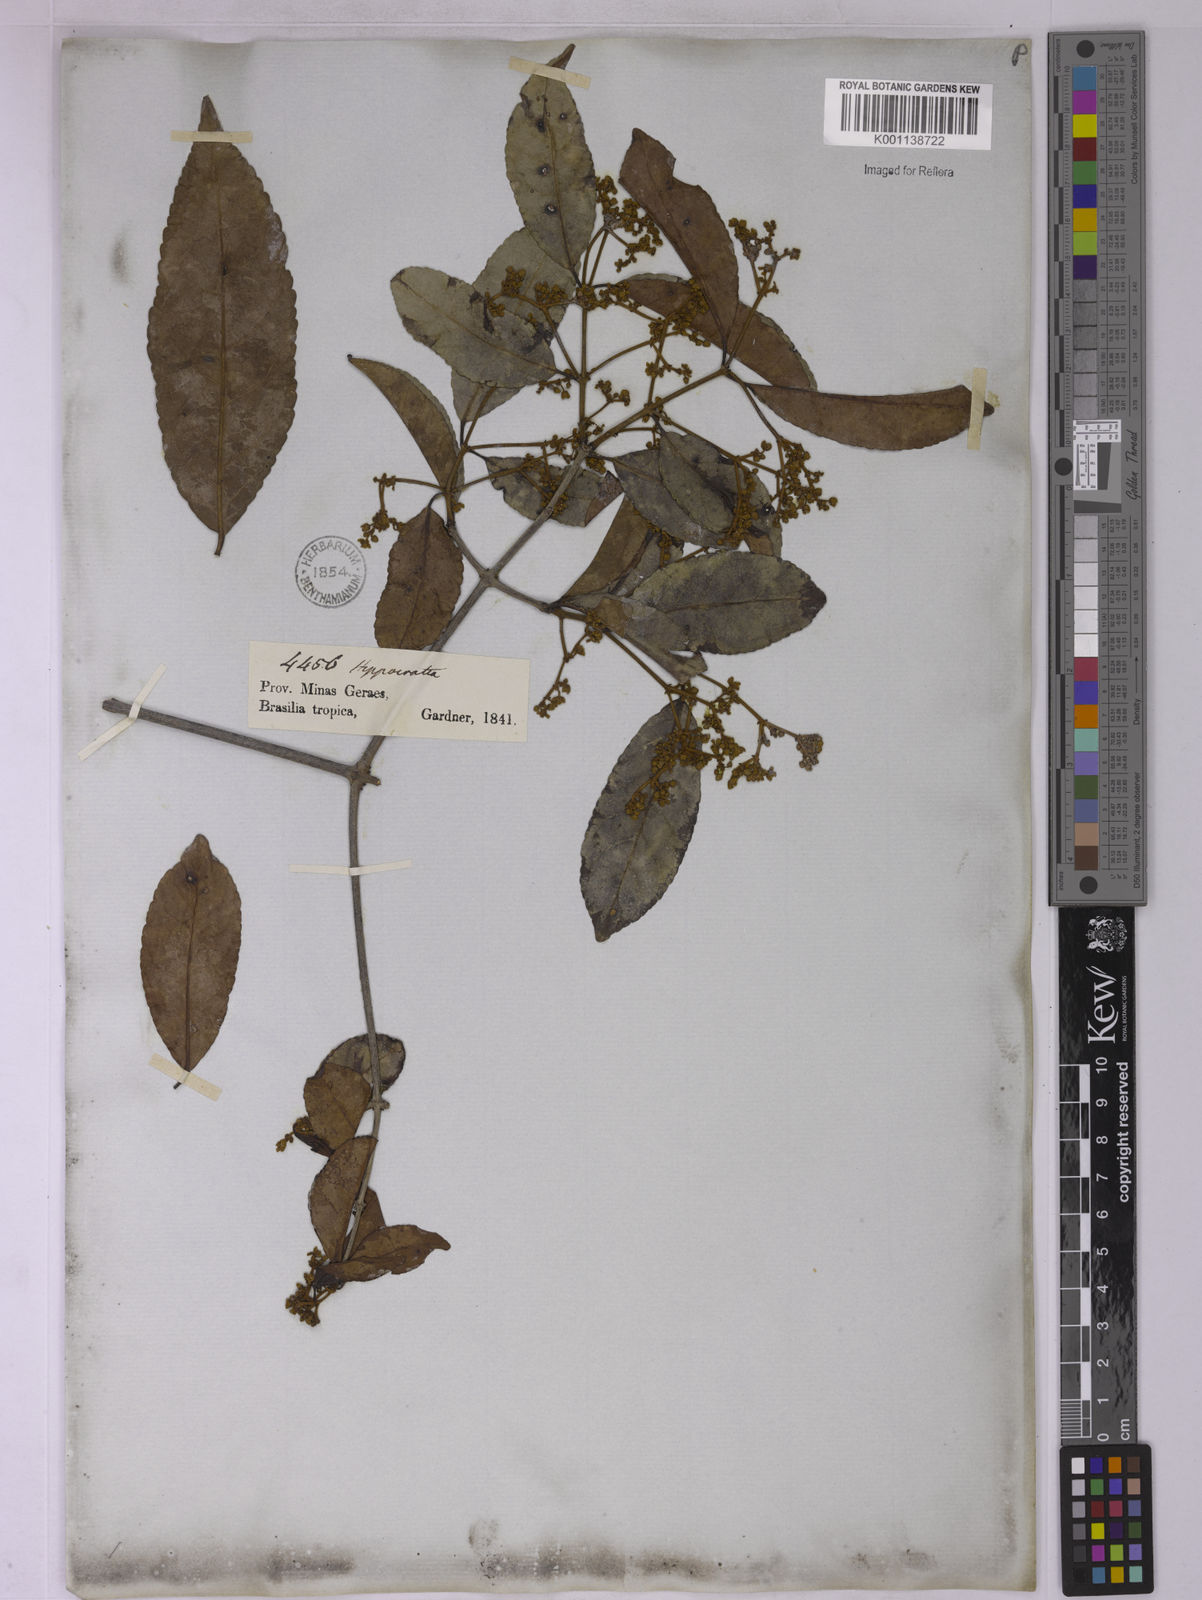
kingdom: Plantae
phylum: Tracheophyta
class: Magnoliopsida
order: Celastrales
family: Celastraceae
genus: Hippocratea
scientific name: Hippocratea volubilis
